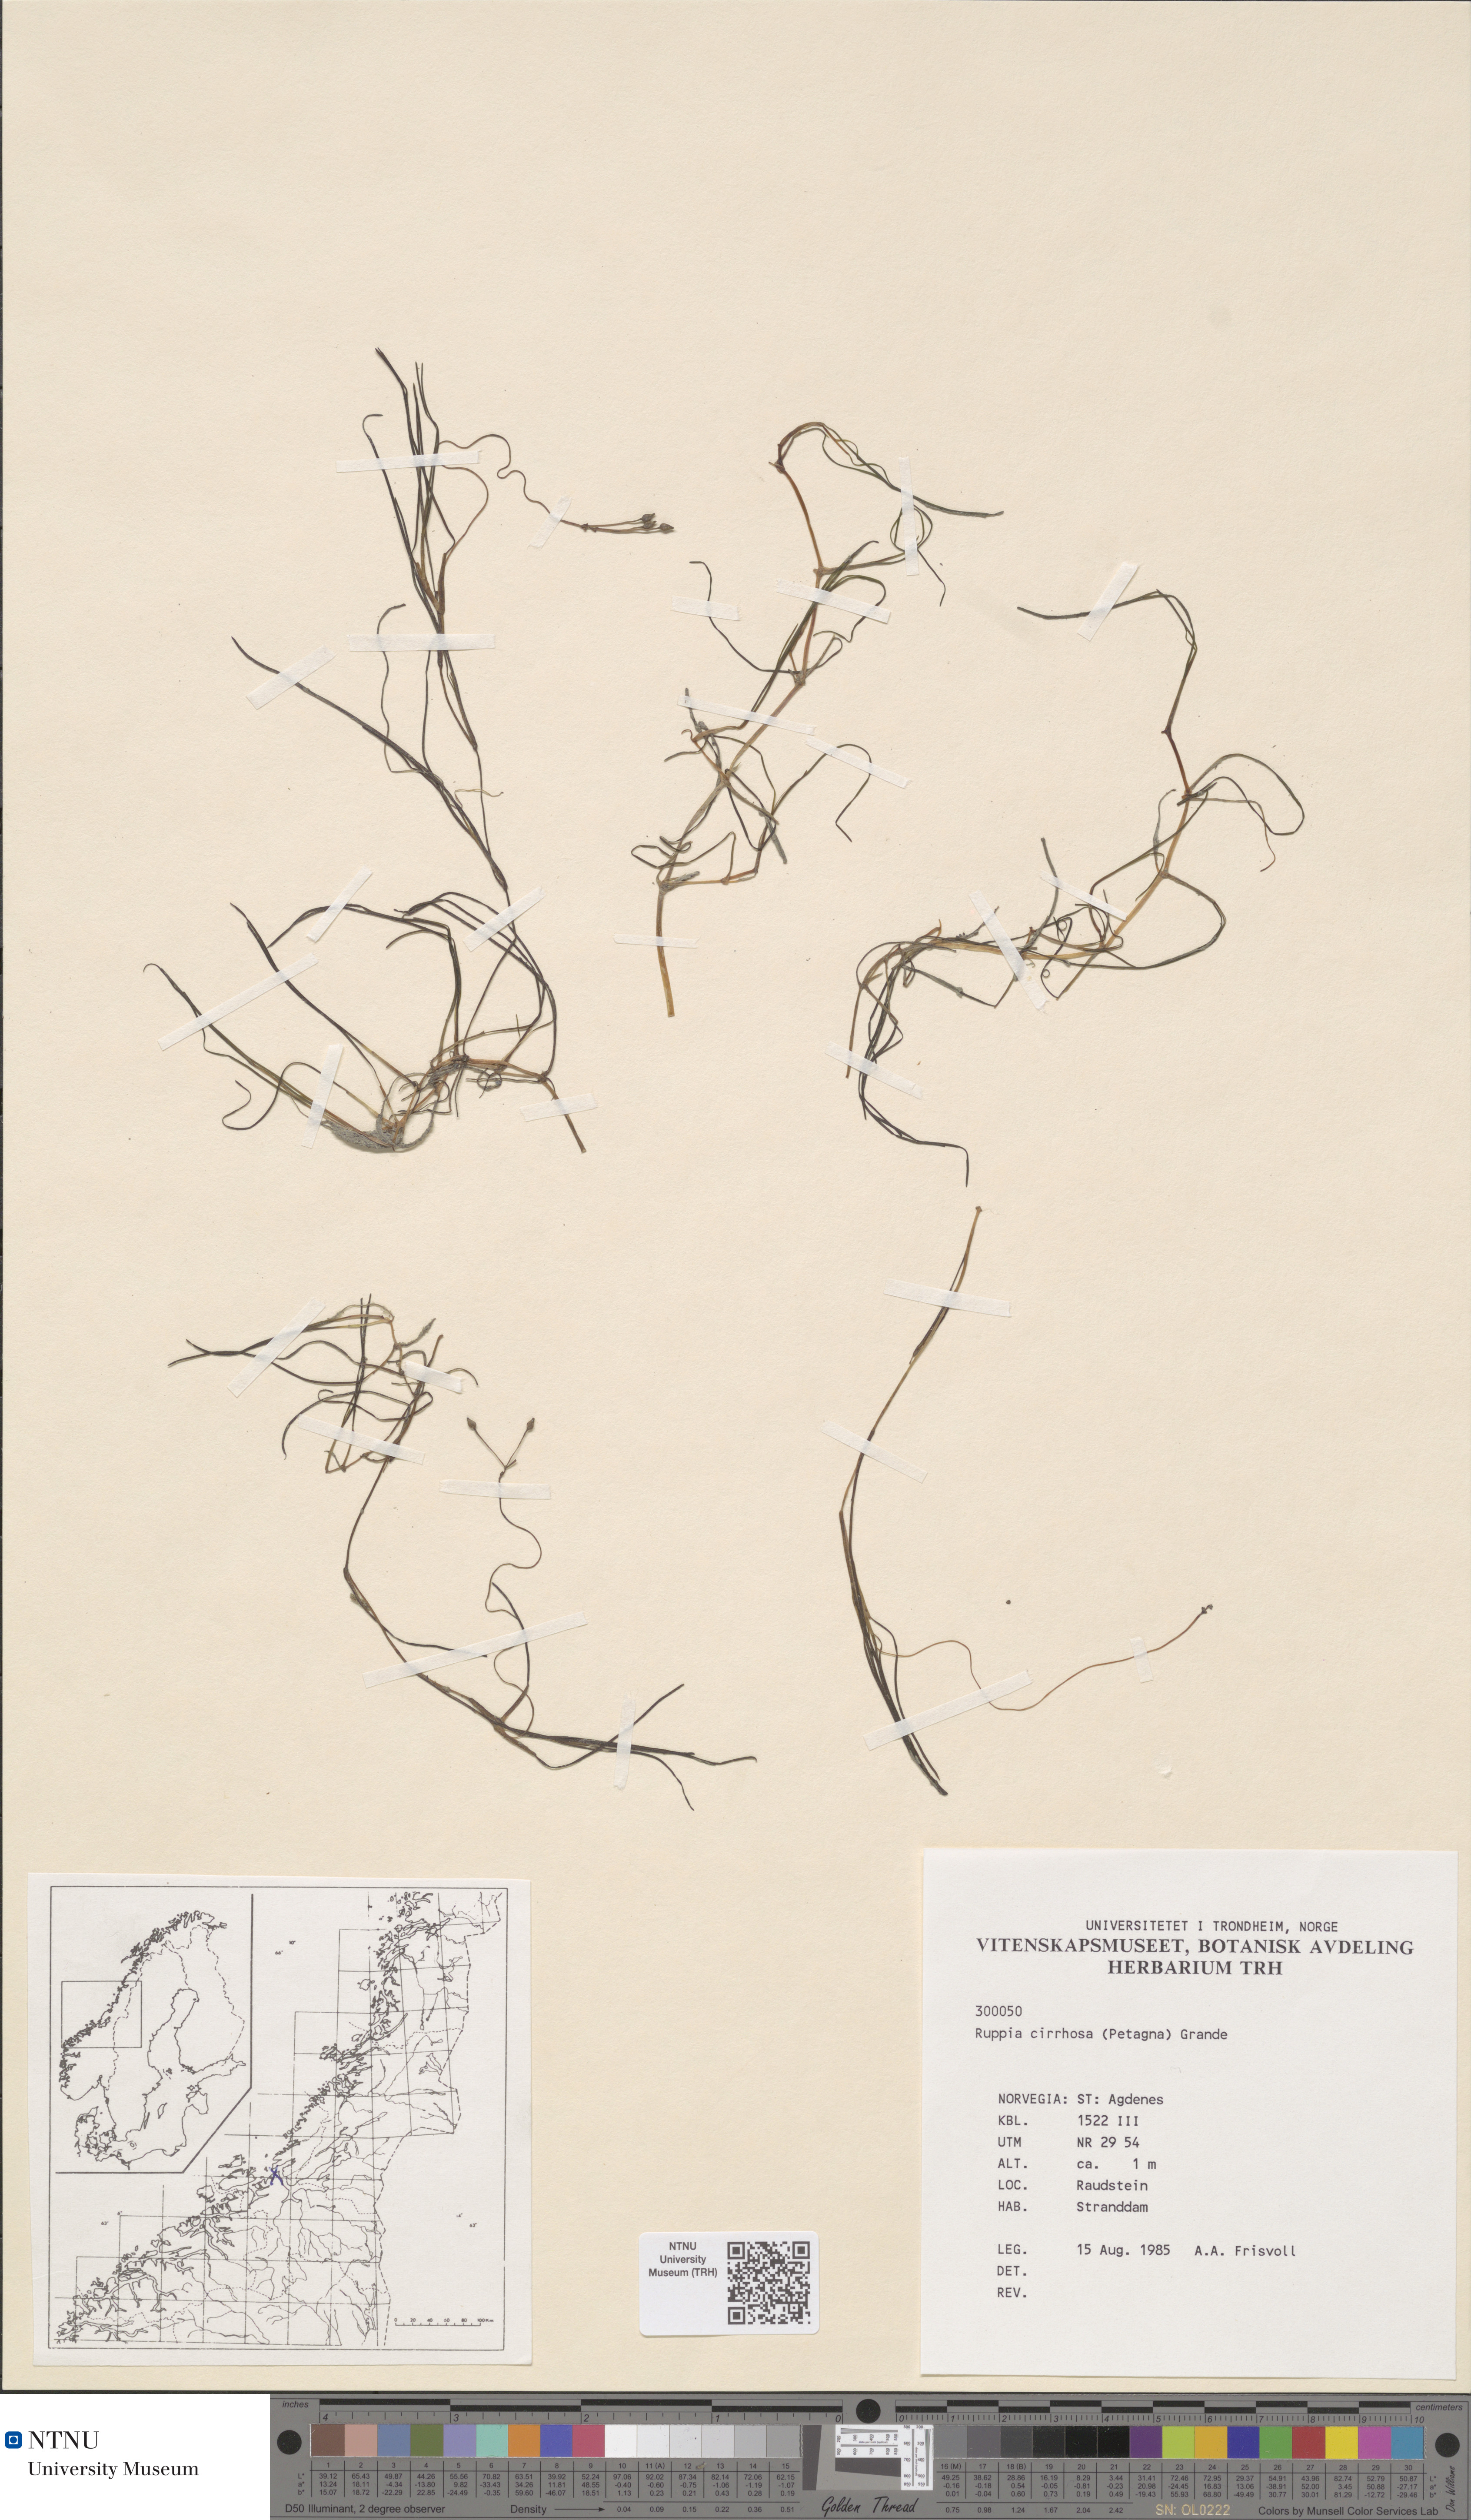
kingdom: Plantae
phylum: Tracheophyta
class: Liliopsida
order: Alismatales
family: Ruppiaceae
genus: Ruppia
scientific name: Ruppia cirrhosa
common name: Spiral tasselweed
